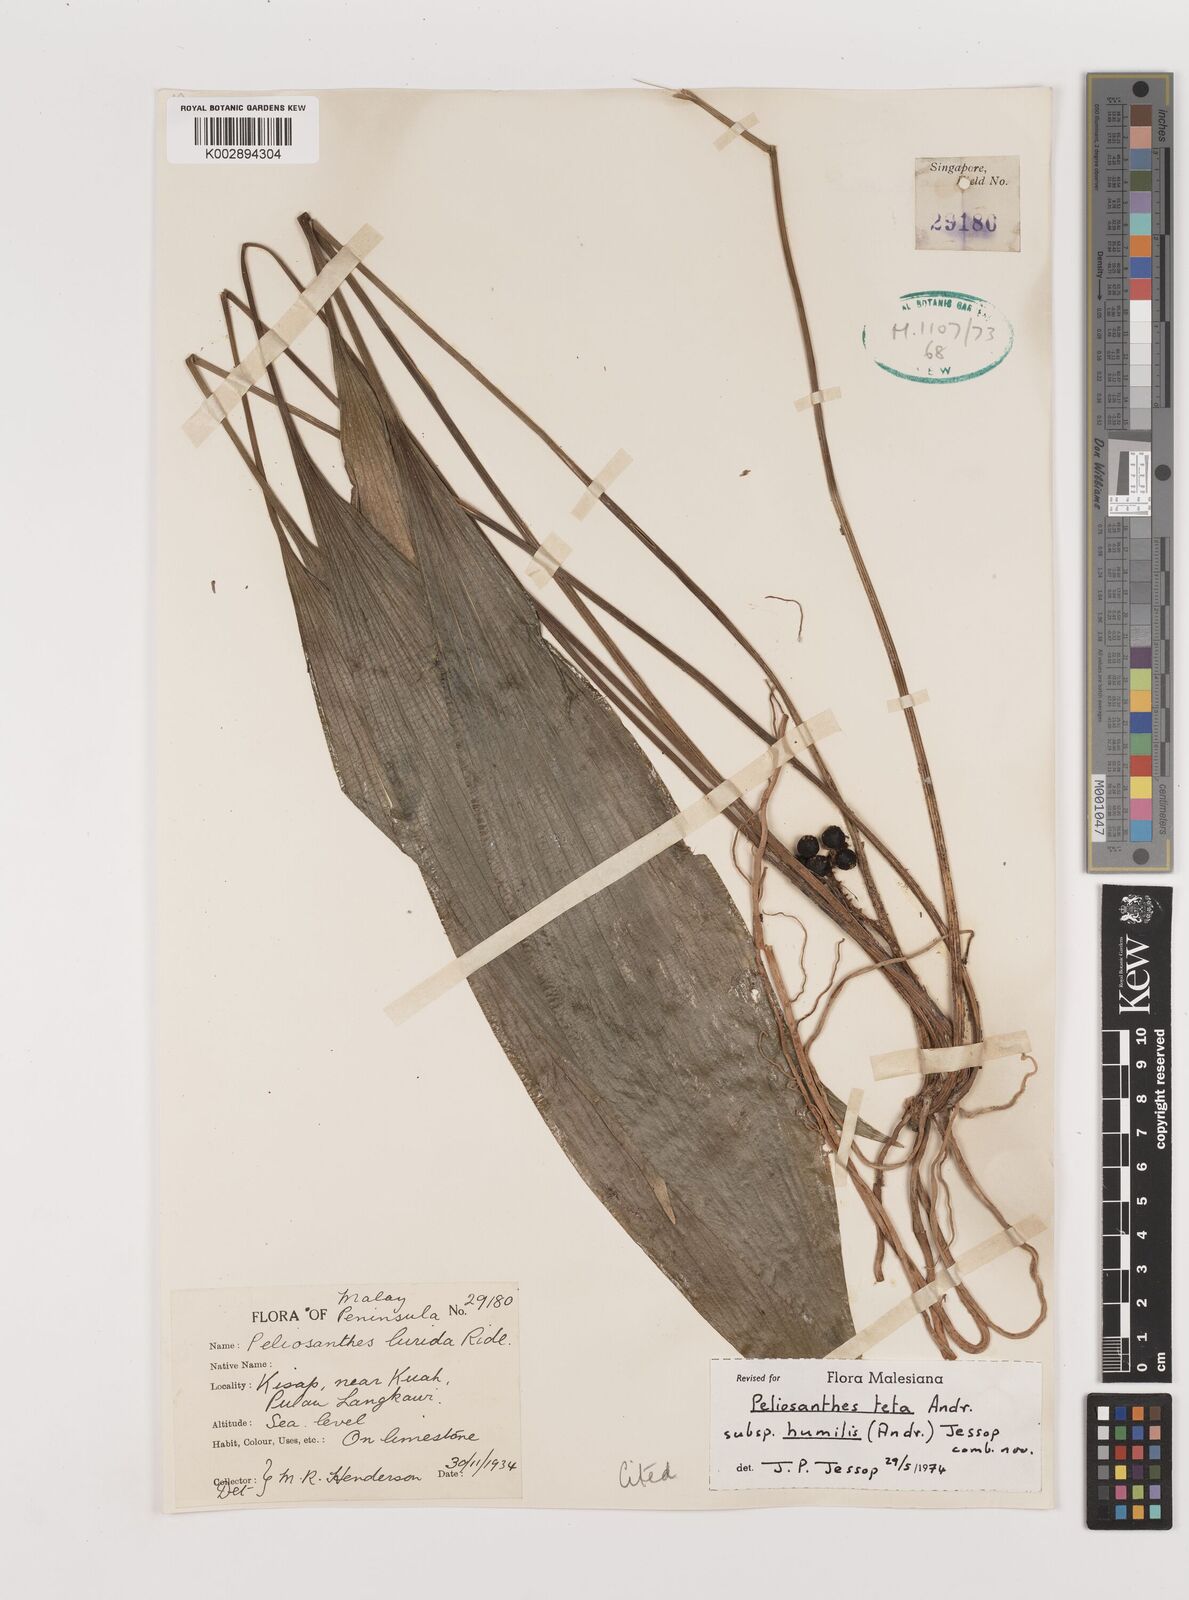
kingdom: Plantae
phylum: Tracheophyta
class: Liliopsida
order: Asparagales
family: Asparagaceae
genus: Peliosanthes
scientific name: Peliosanthes teta
